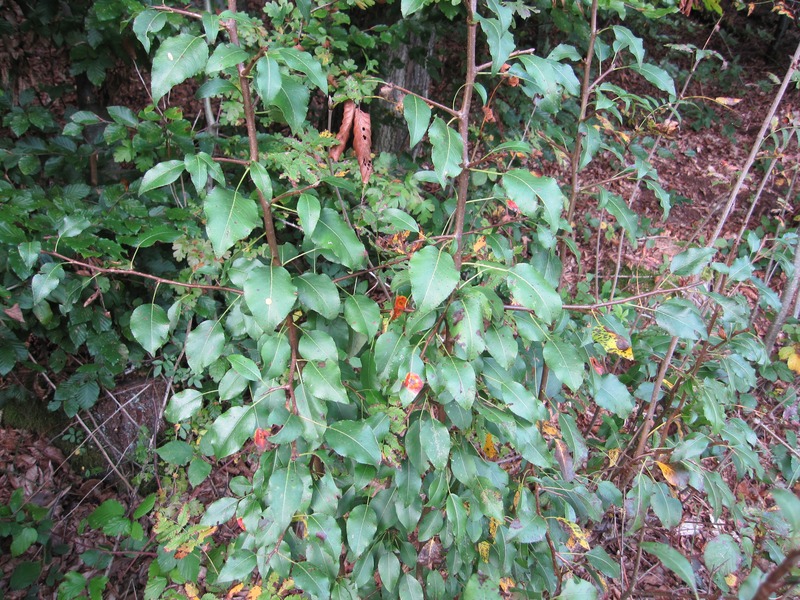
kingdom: Fungi
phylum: Basidiomycota
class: Pucciniomycetes
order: Pucciniales
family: Gymnosporangiaceae
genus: Gymnosporangium
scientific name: Gymnosporangium sabinae
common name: Pear trellis rust fungus
